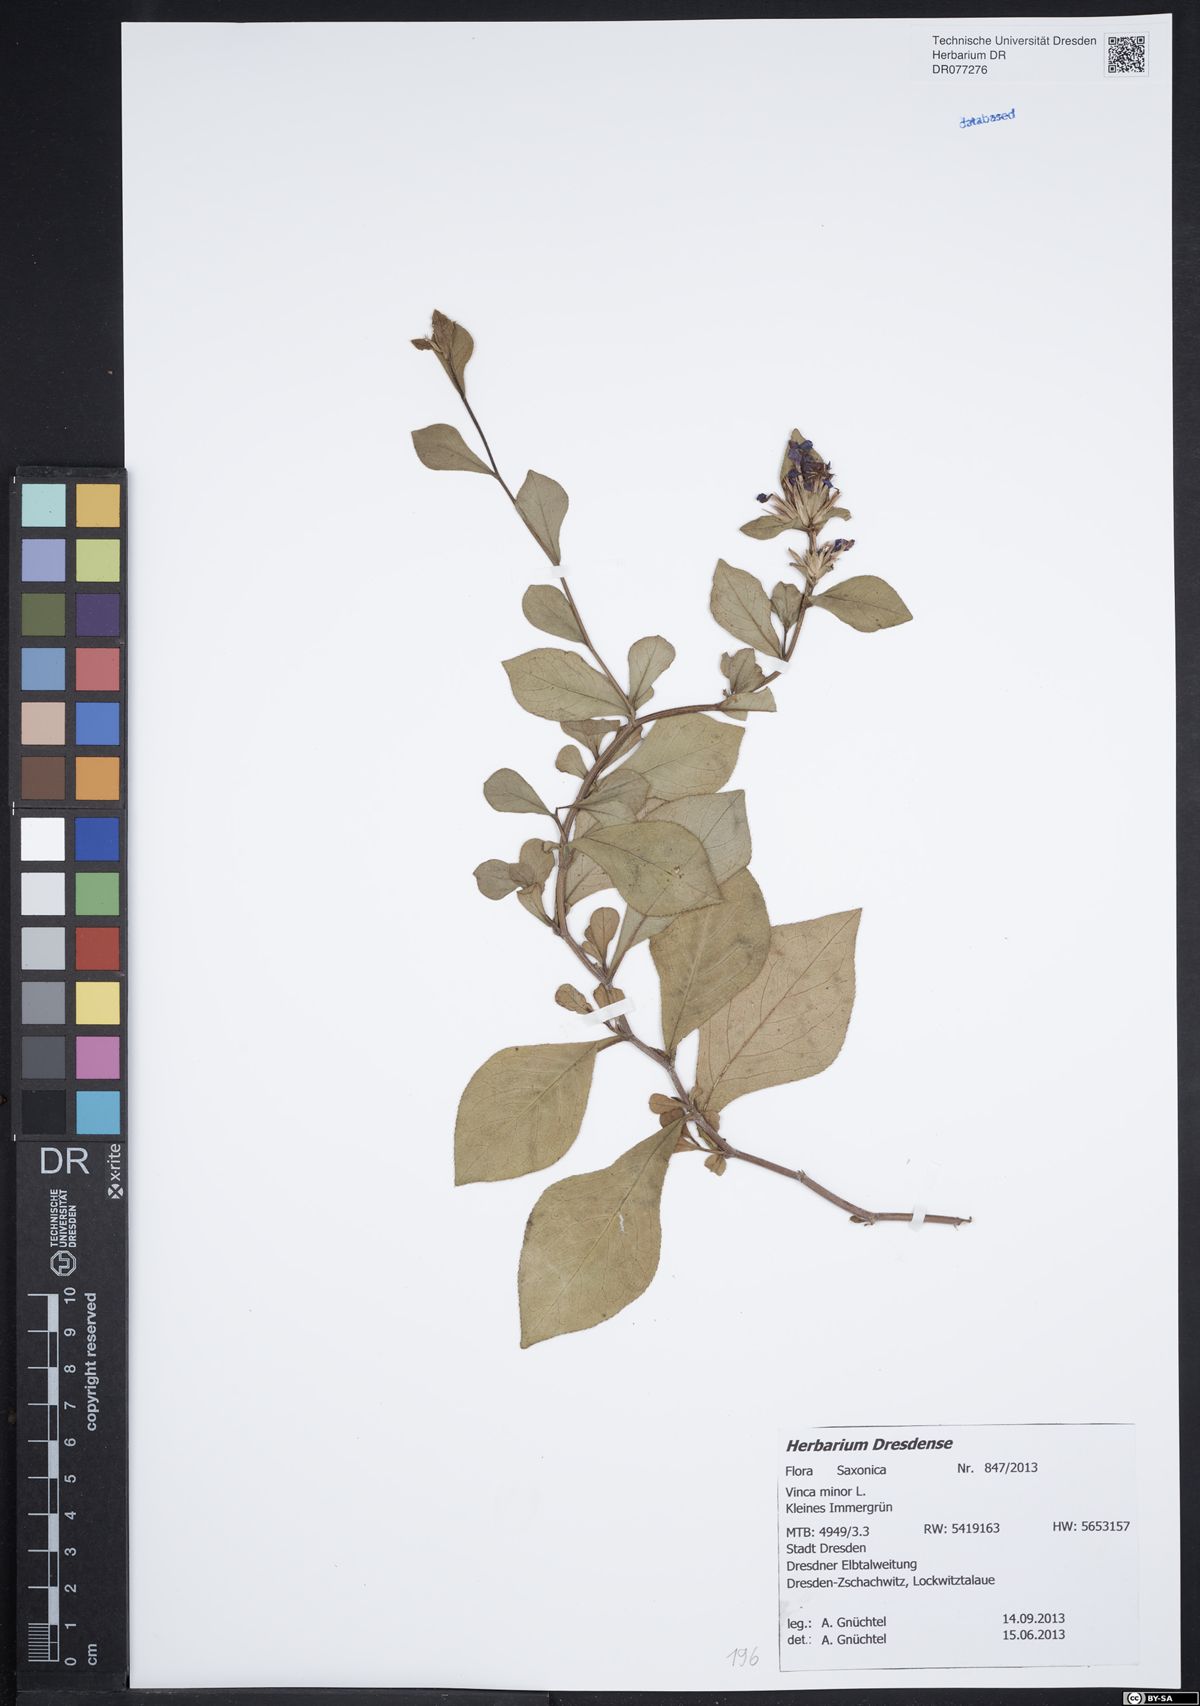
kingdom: Plantae
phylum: Tracheophyta
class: Magnoliopsida
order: Gentianales
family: Apocynaceae
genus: Vinca
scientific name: Vinca minor
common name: Lesser periwinkle
